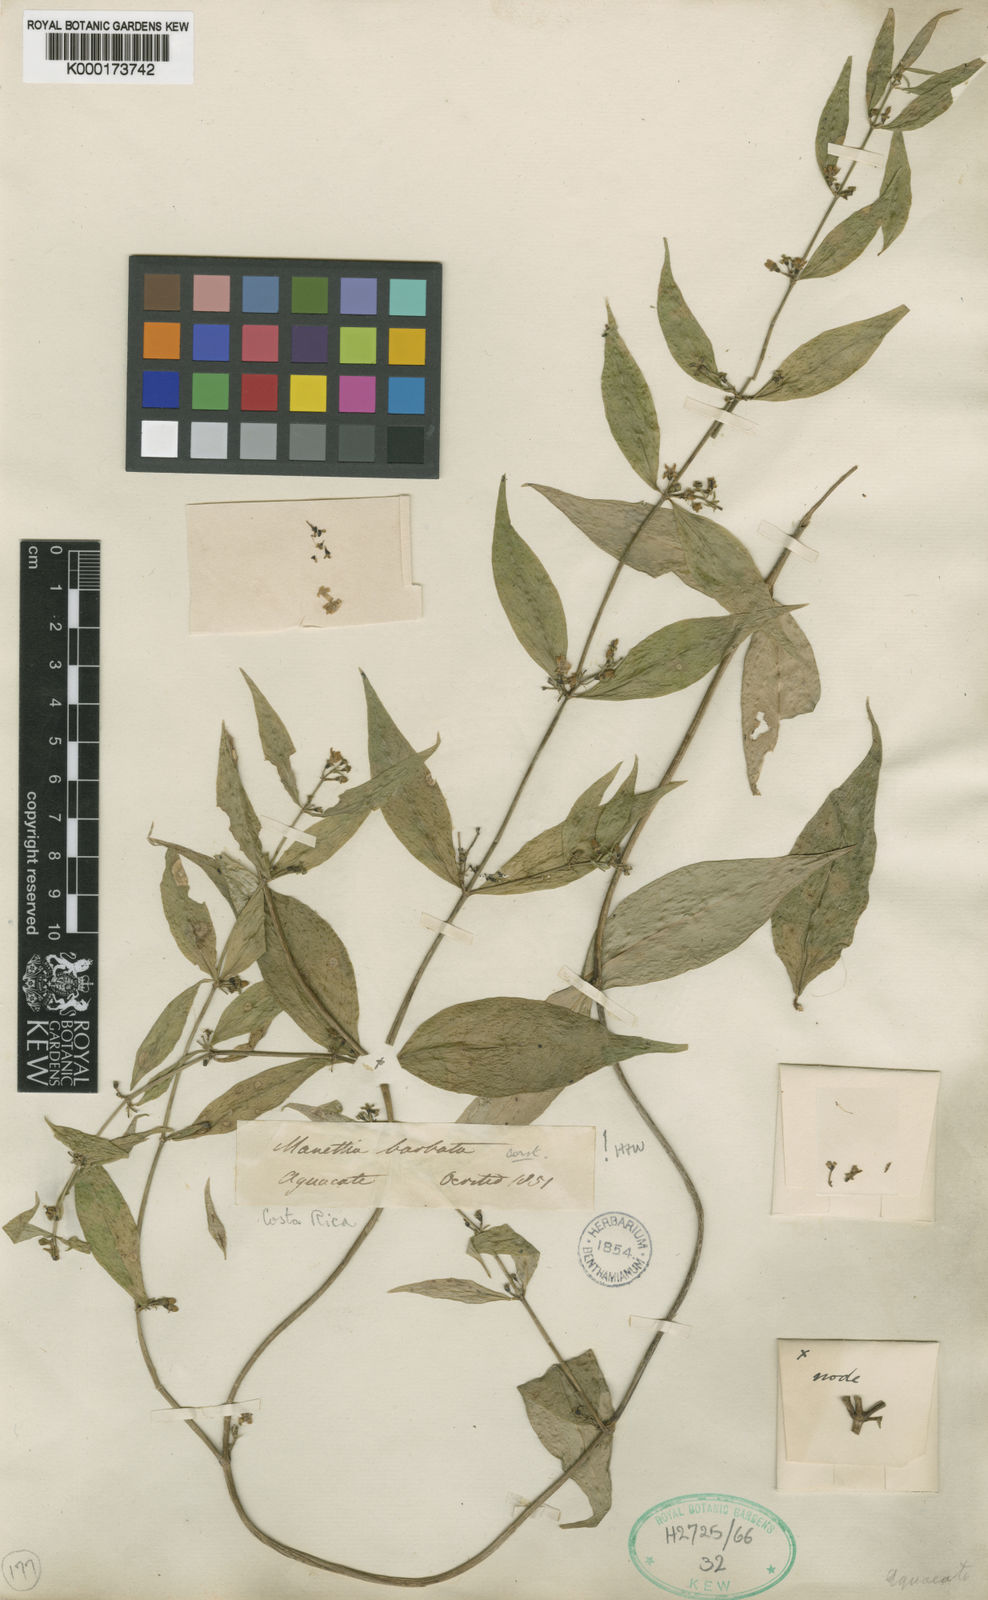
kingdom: Plantae
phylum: Tracheophyta
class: Magnoliopsida
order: Gentianales
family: Rubiaceae
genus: Manettia
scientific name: Manettia barbata
